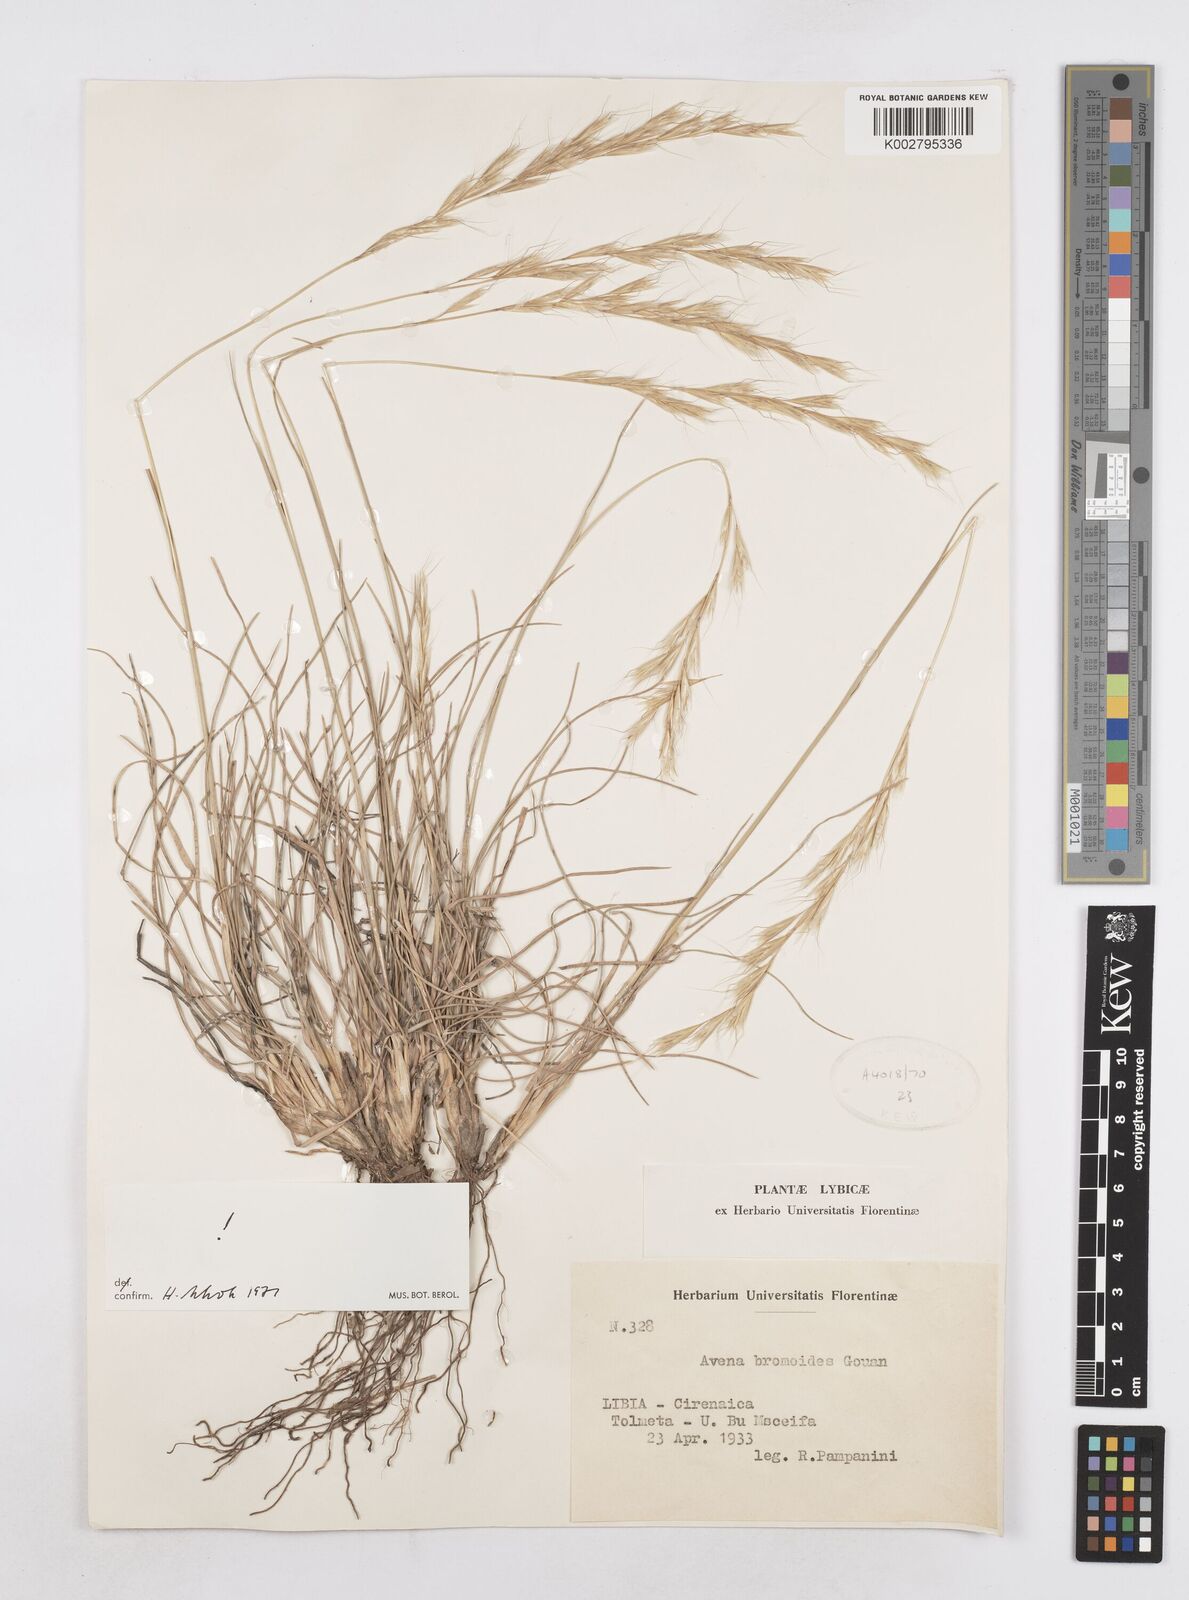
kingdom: Plantae
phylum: Tracheophyta
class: Liliopsida
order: Poales
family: Poaceae
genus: Helictochloa
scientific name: Helictochloa bromoides
